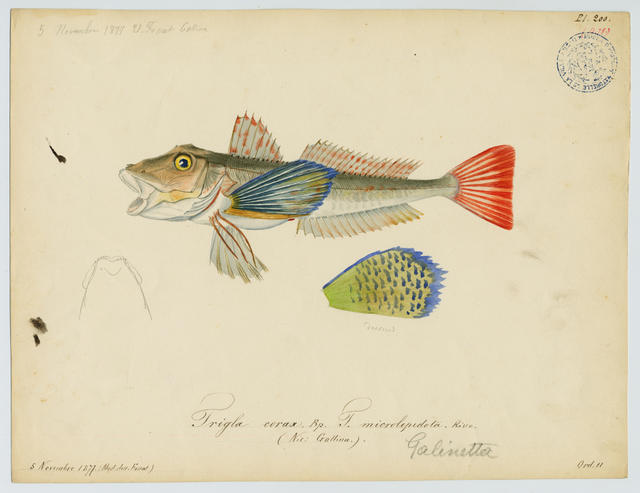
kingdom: Animalia
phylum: Chordata
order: Scorpaeniformes
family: Triglidae
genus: Chelidonichthys
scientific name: Chelidonichthys lucerna
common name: Tub gurnard
